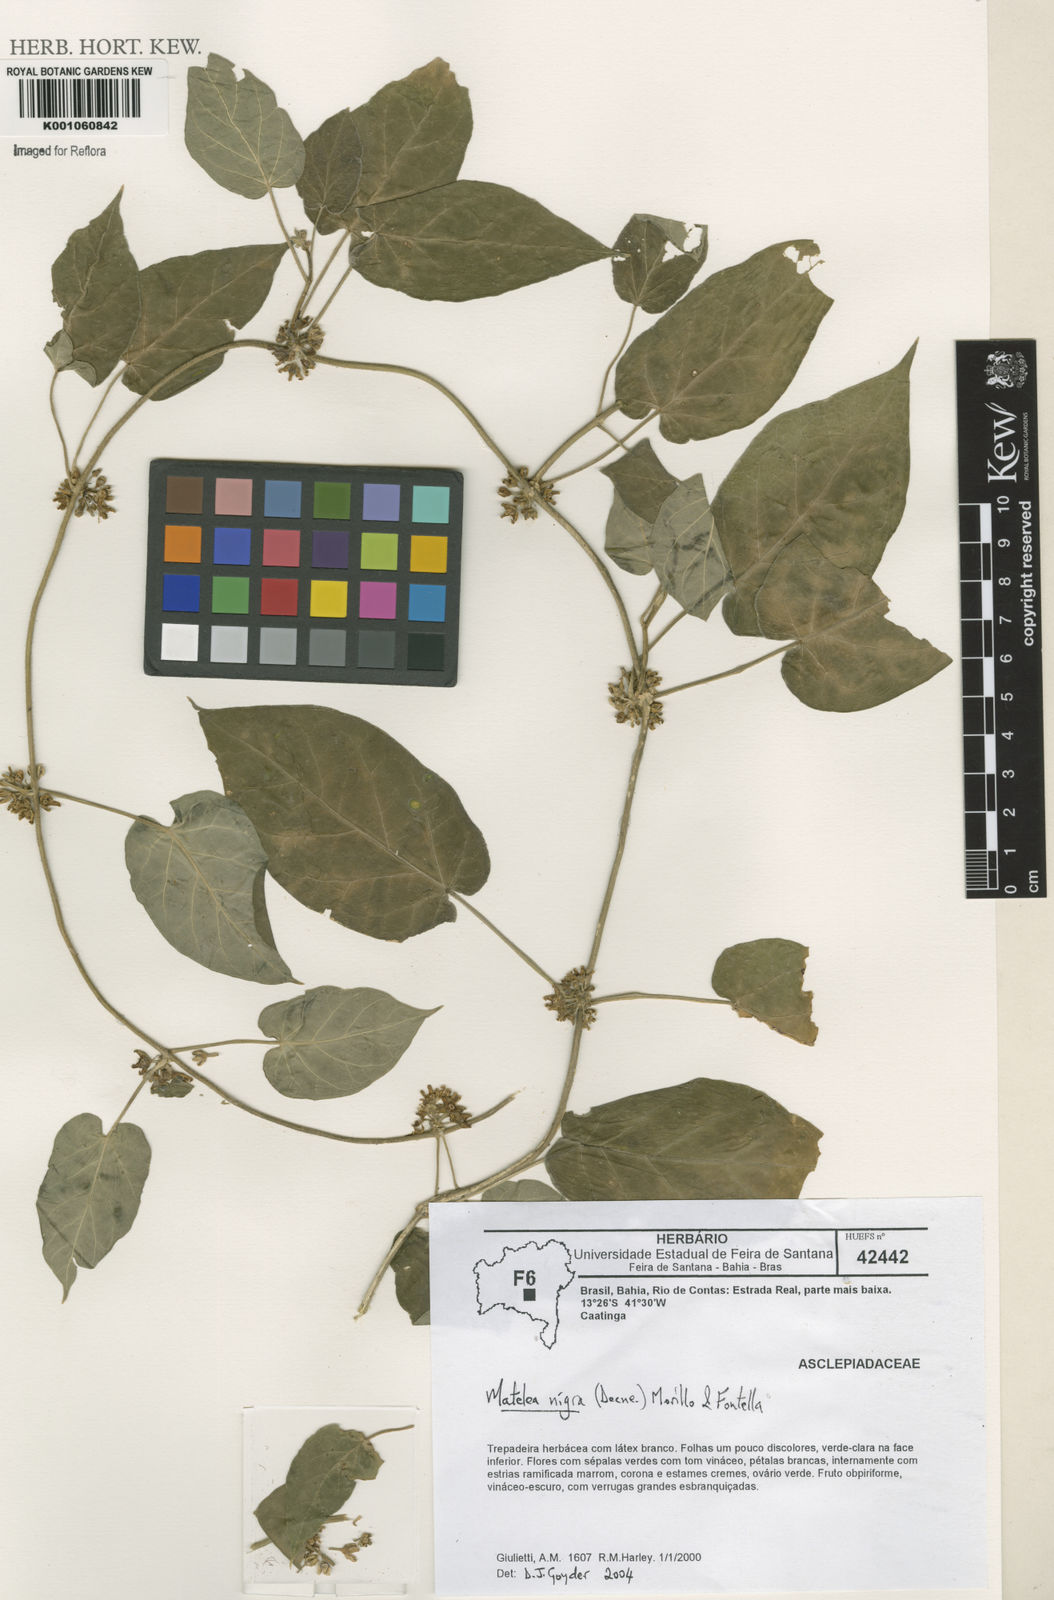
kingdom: Plantae
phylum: Tracheophyta
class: Magnoliopsida
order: Gentianales
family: Apocynaceae
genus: Ibatia
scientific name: Ibatia nigra
